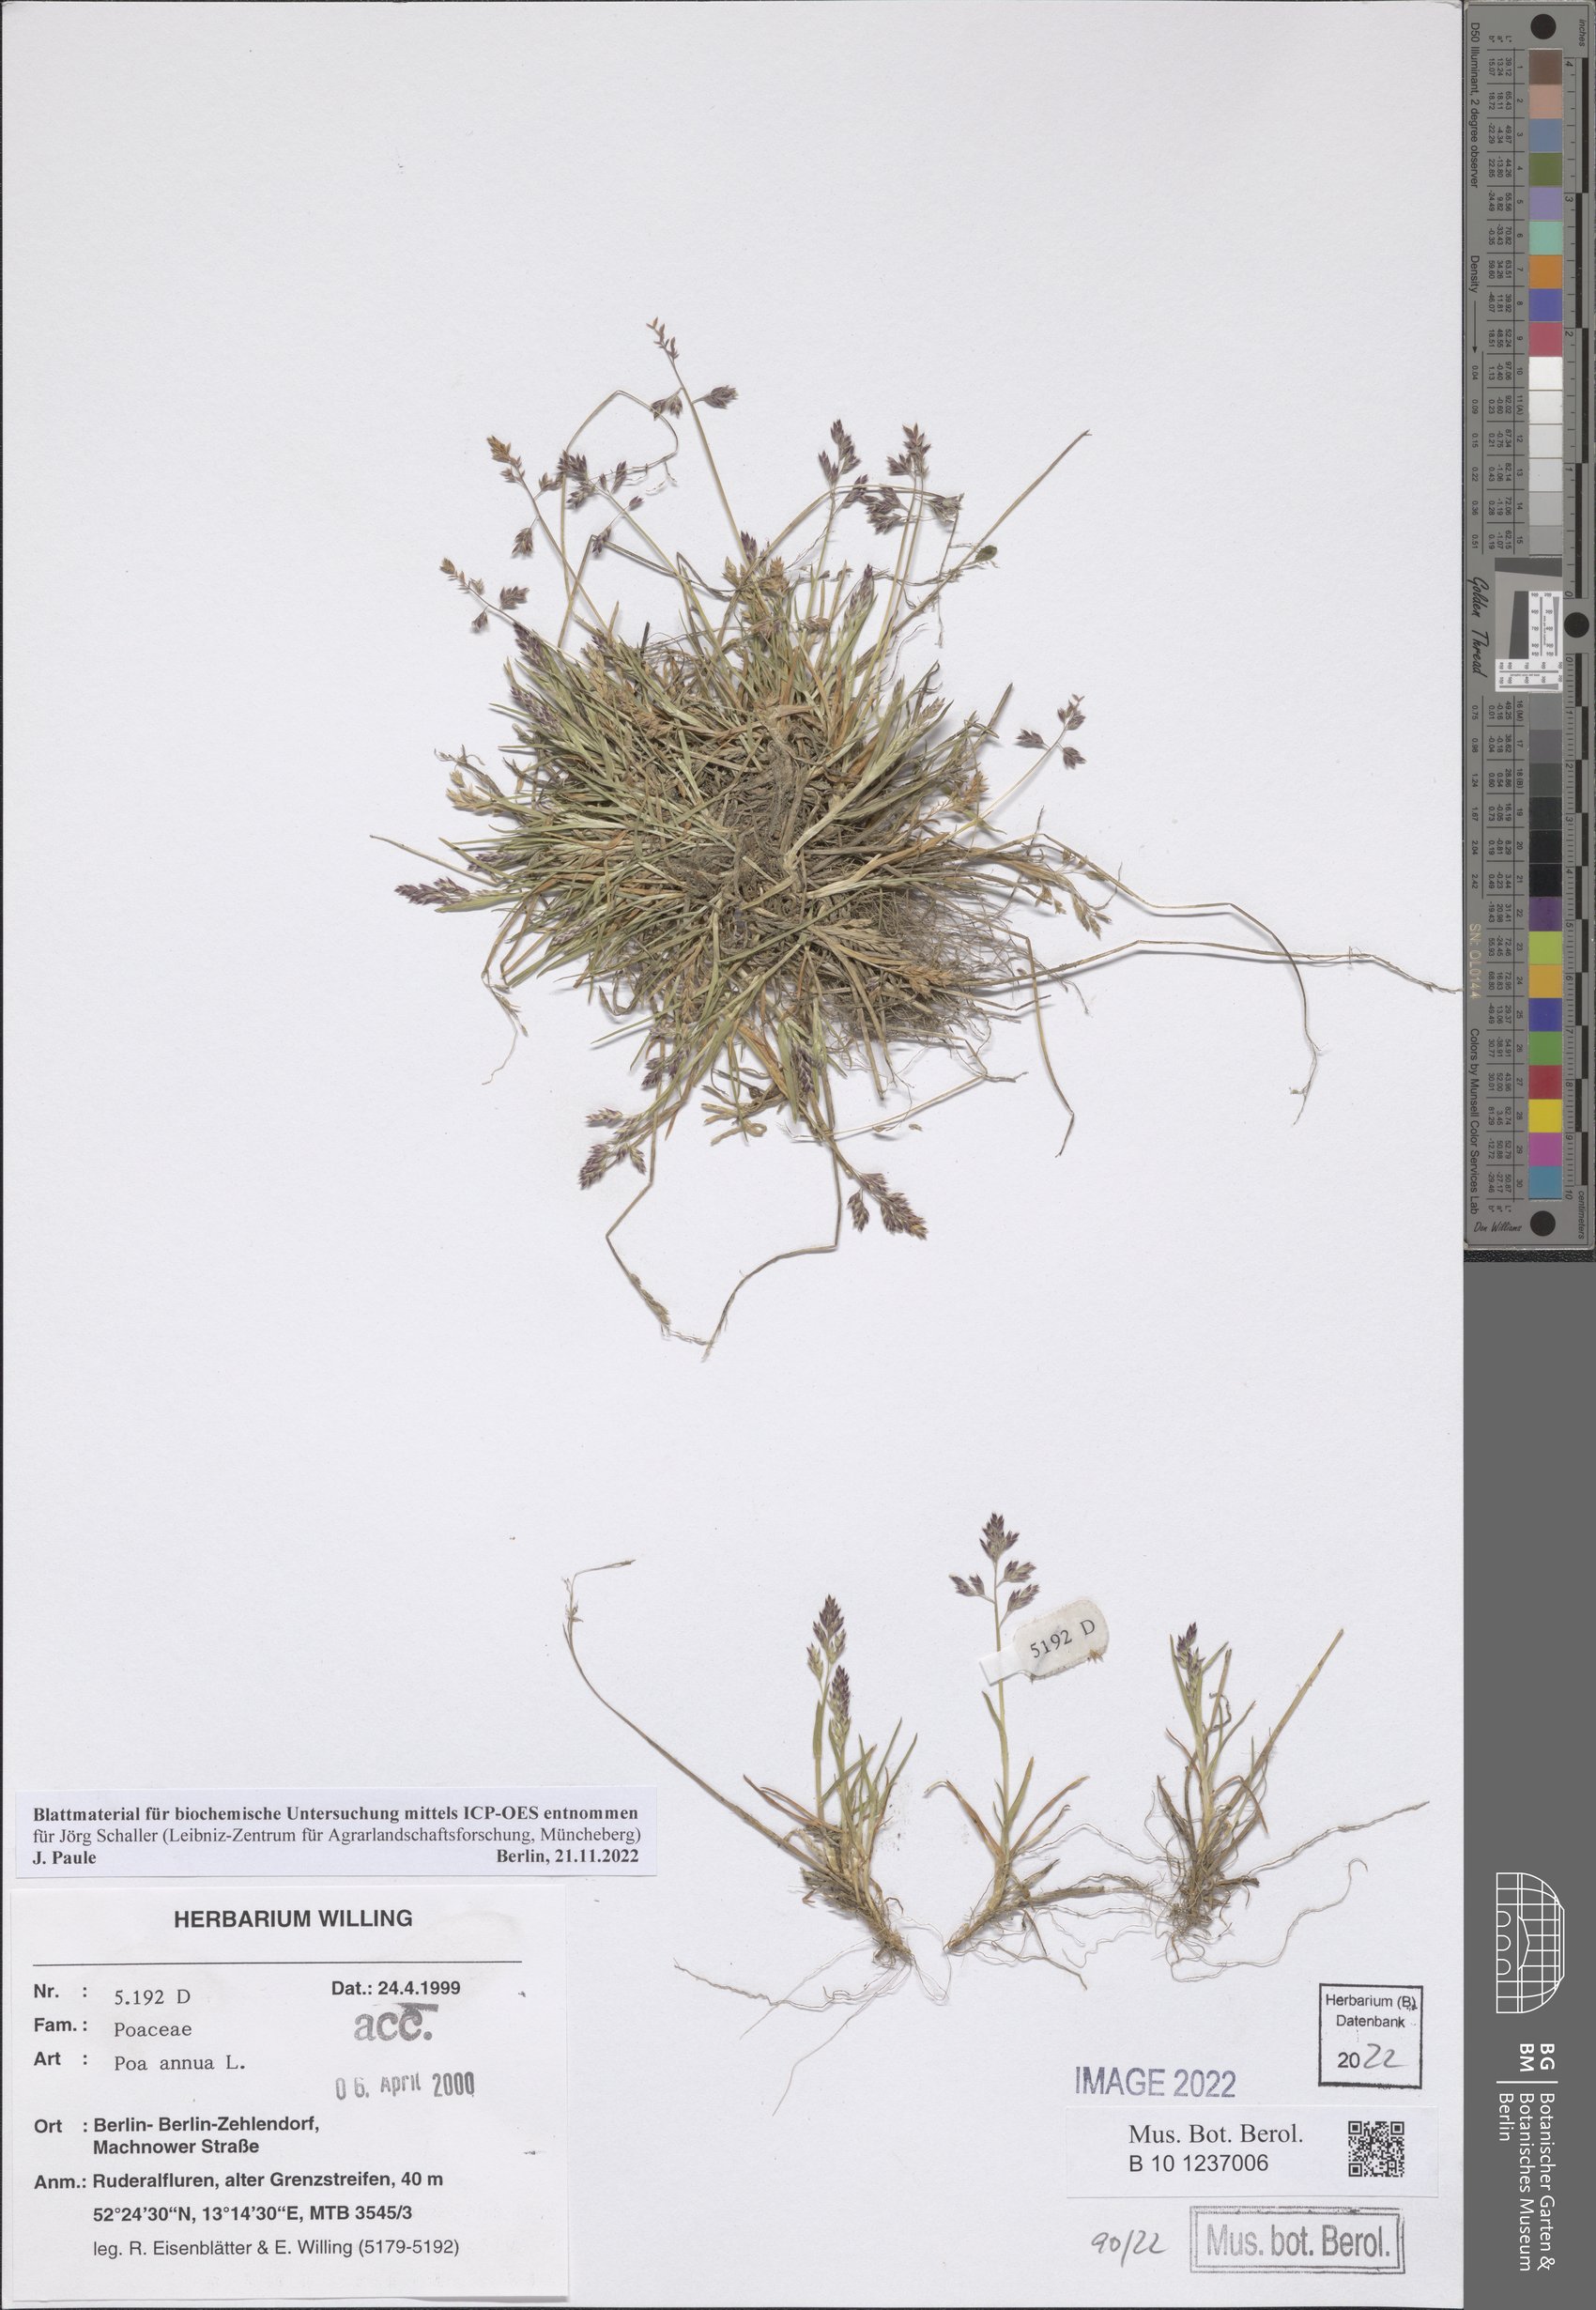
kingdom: Plantae
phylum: Tracheophyta
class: Liliopsida
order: Poales
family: Poaceae
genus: Poa
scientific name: Poa annua
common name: Annual bluegrass
